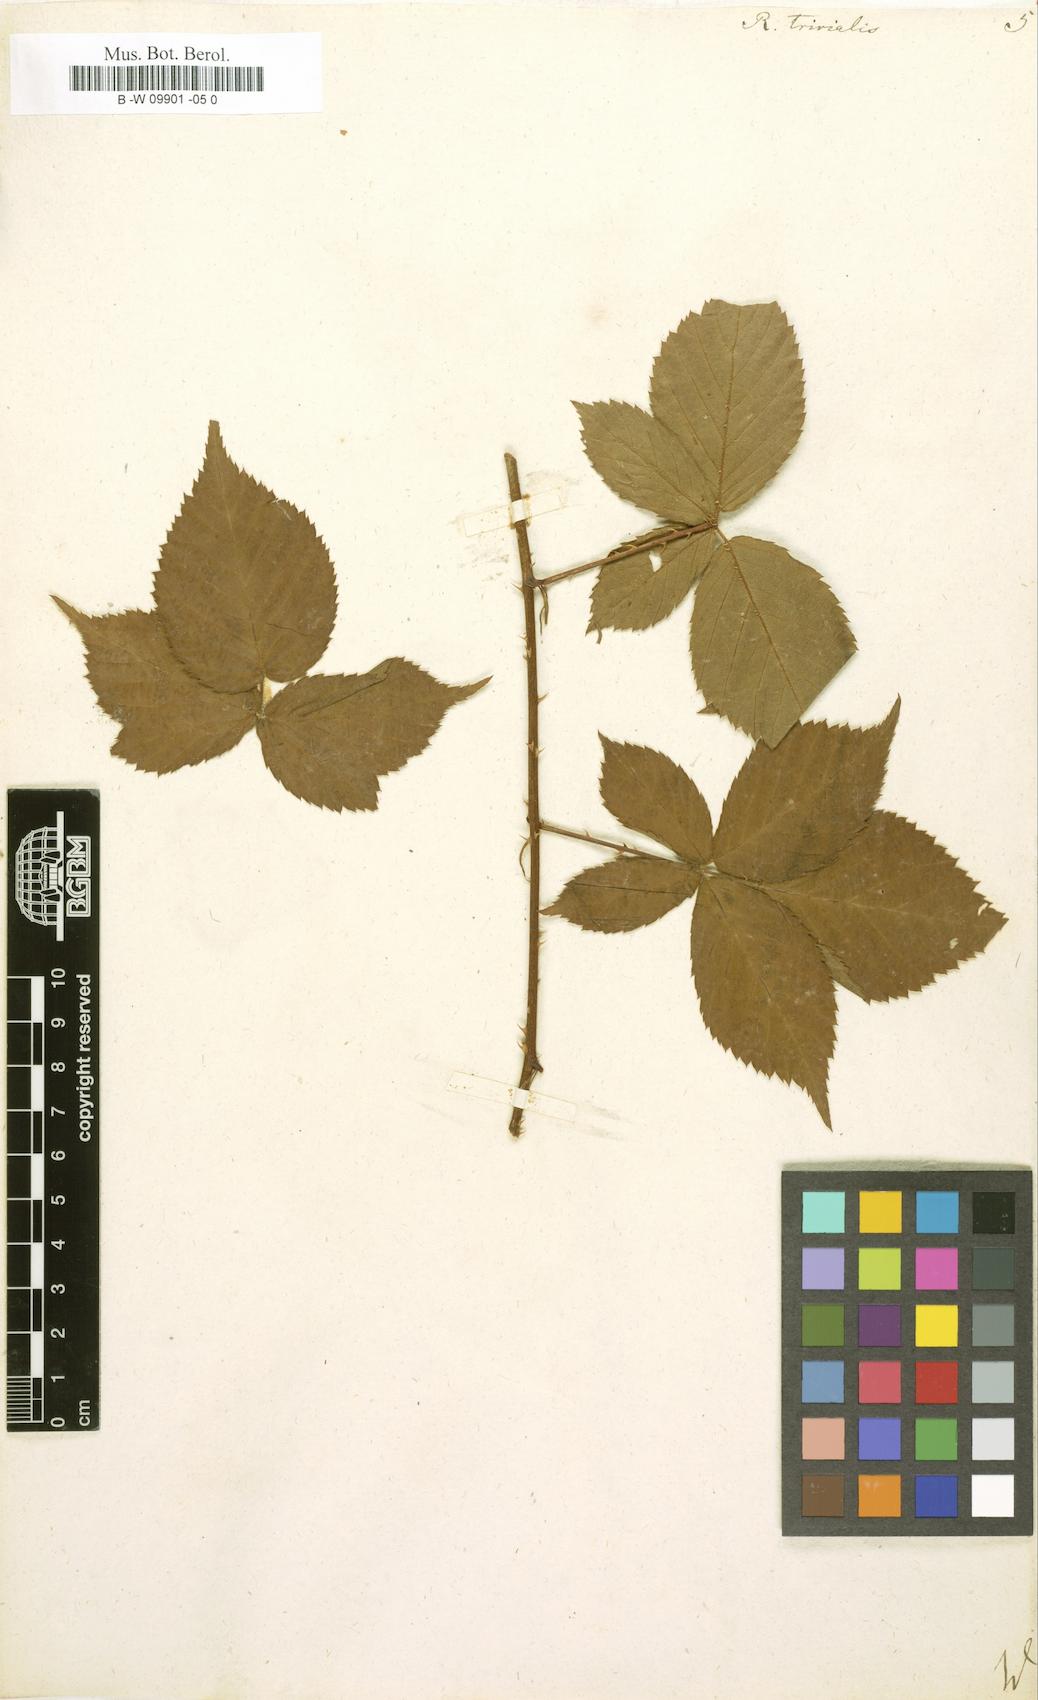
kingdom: Plantae
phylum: Tracheophyta
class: Magnoliopsida
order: Rosales
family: Rosaceae
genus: Rubus
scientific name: Rubus trivialis
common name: Southern dewberry
